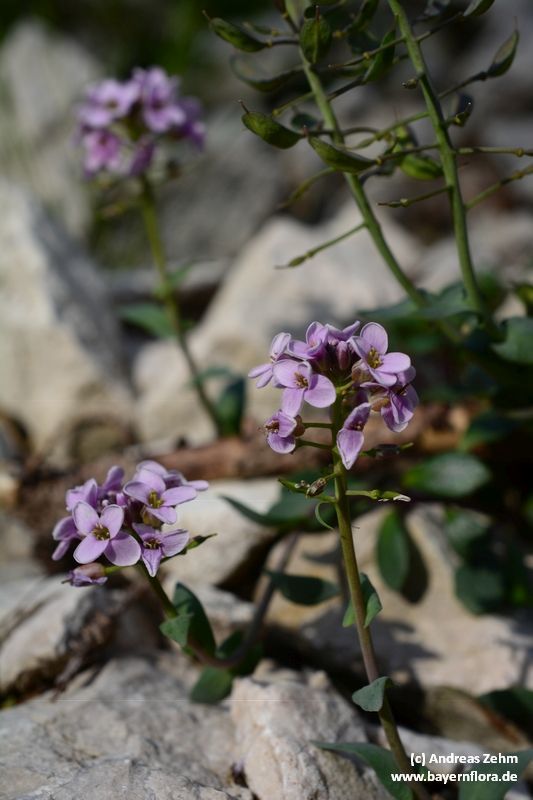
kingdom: Plantae
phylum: Tracheophyta
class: Magnoliopsida
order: Brassicales
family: Brassicaceae
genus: Noccaea
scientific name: Noccaea rotundifolia
